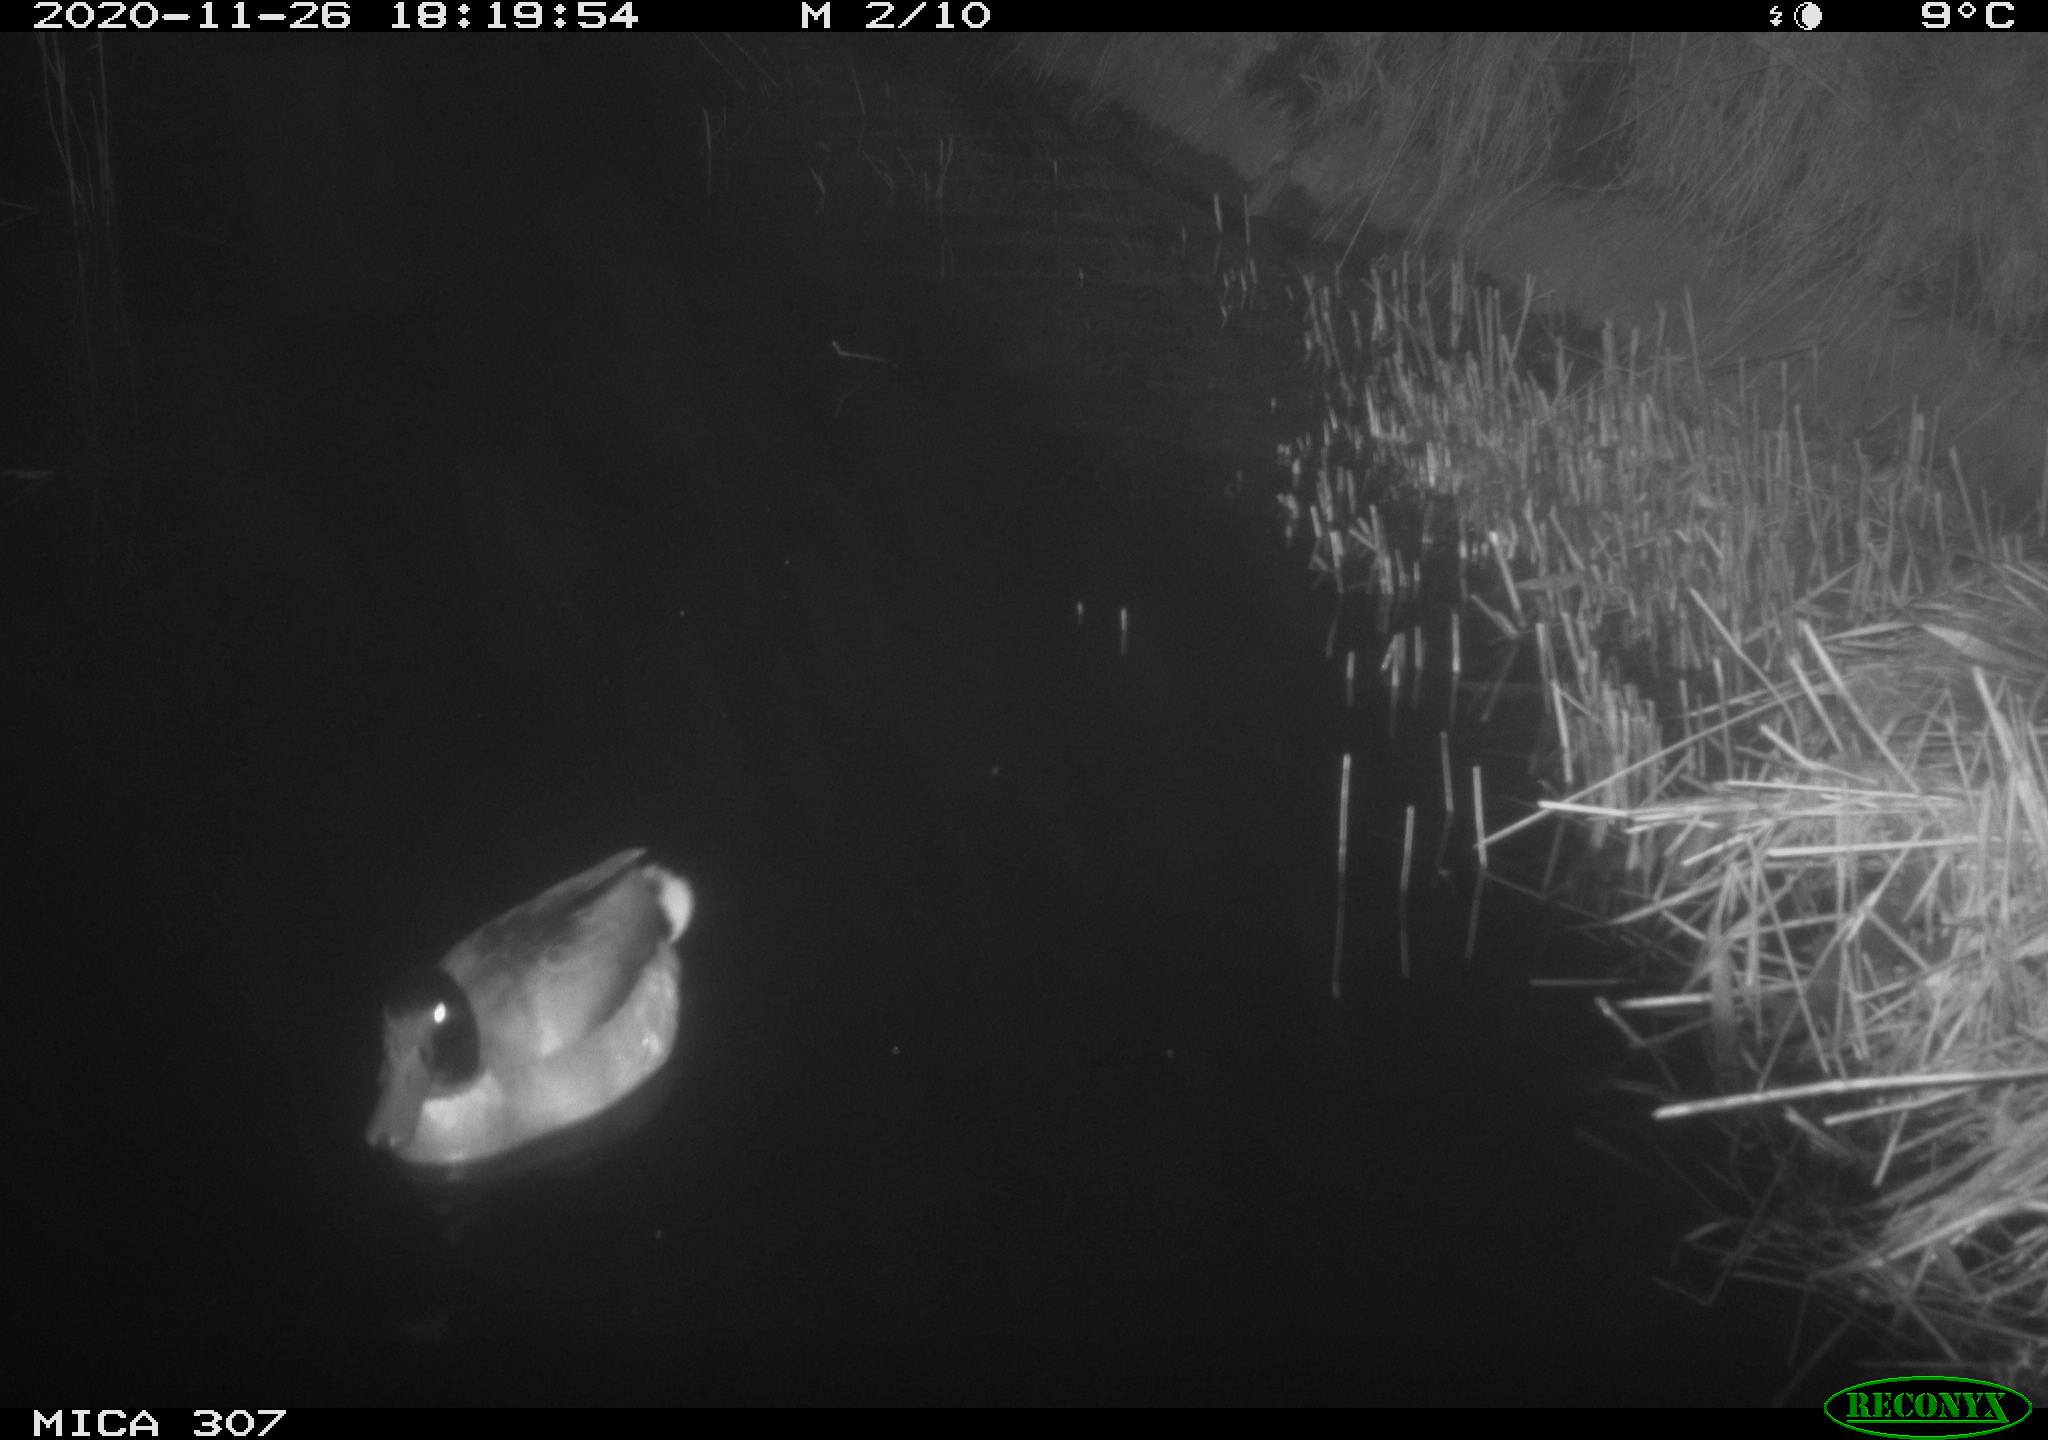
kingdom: Animalia
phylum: Chordata
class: Aves
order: Anseriformes
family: Anatidae
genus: Anas
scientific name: Anas platyrhynchos
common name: Mallard
